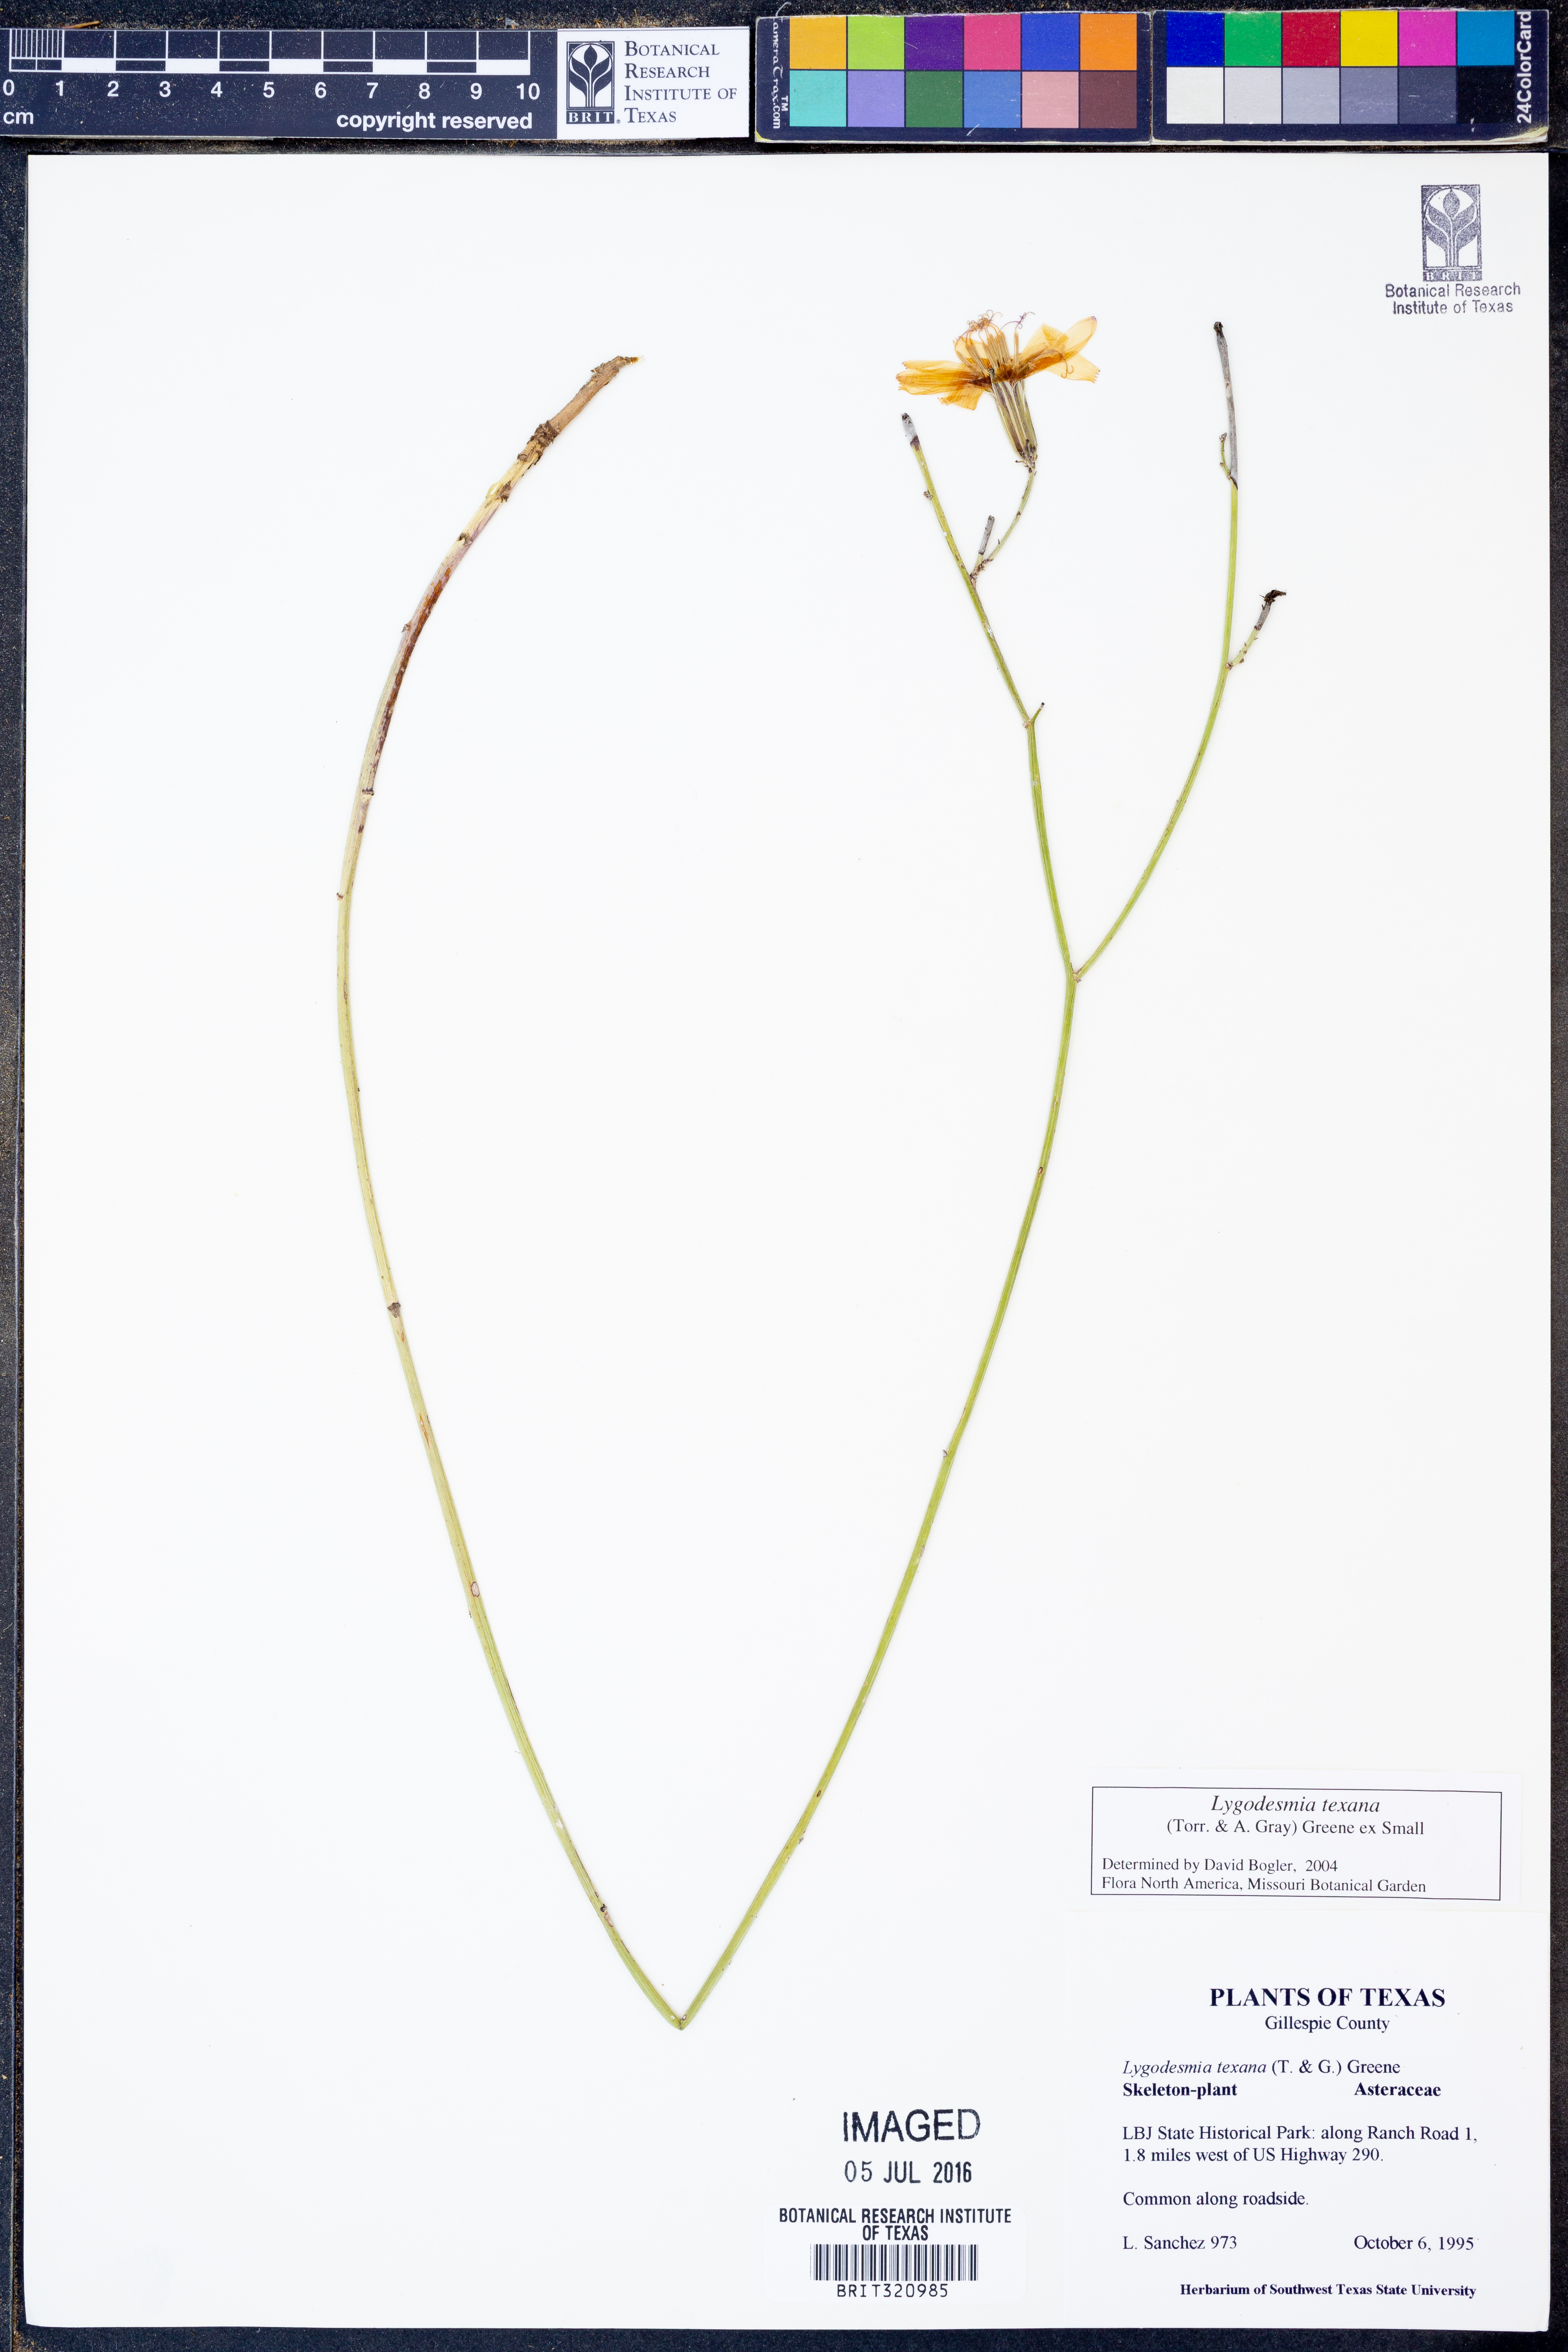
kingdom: Plantae
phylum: Tracheophyta
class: Magnoliopsida
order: Asterales
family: Asteraceae
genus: Lygodesmia
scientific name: Lygodesmia texana
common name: Texas skeleton-plant
